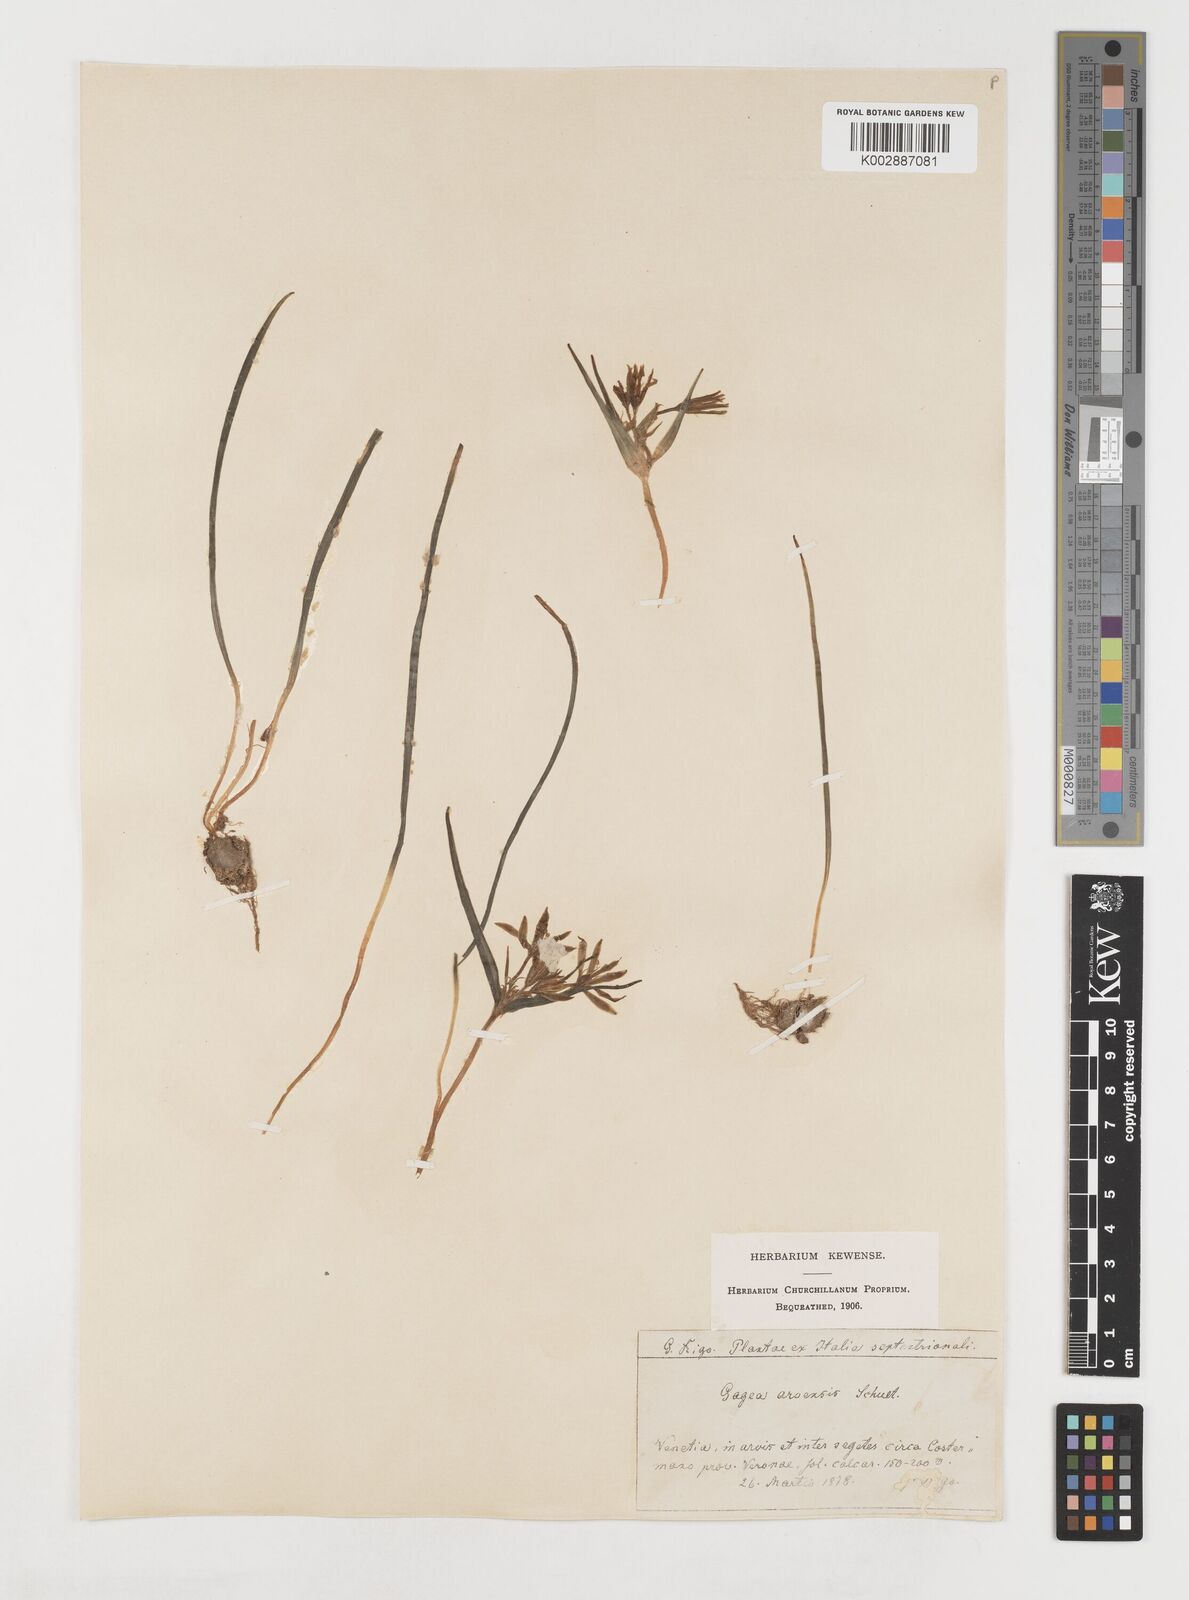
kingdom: Plantae
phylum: Tracheophyta
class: Liliopsida
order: Liliales
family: Liliaceae
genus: Gagea
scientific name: Gagea minima
